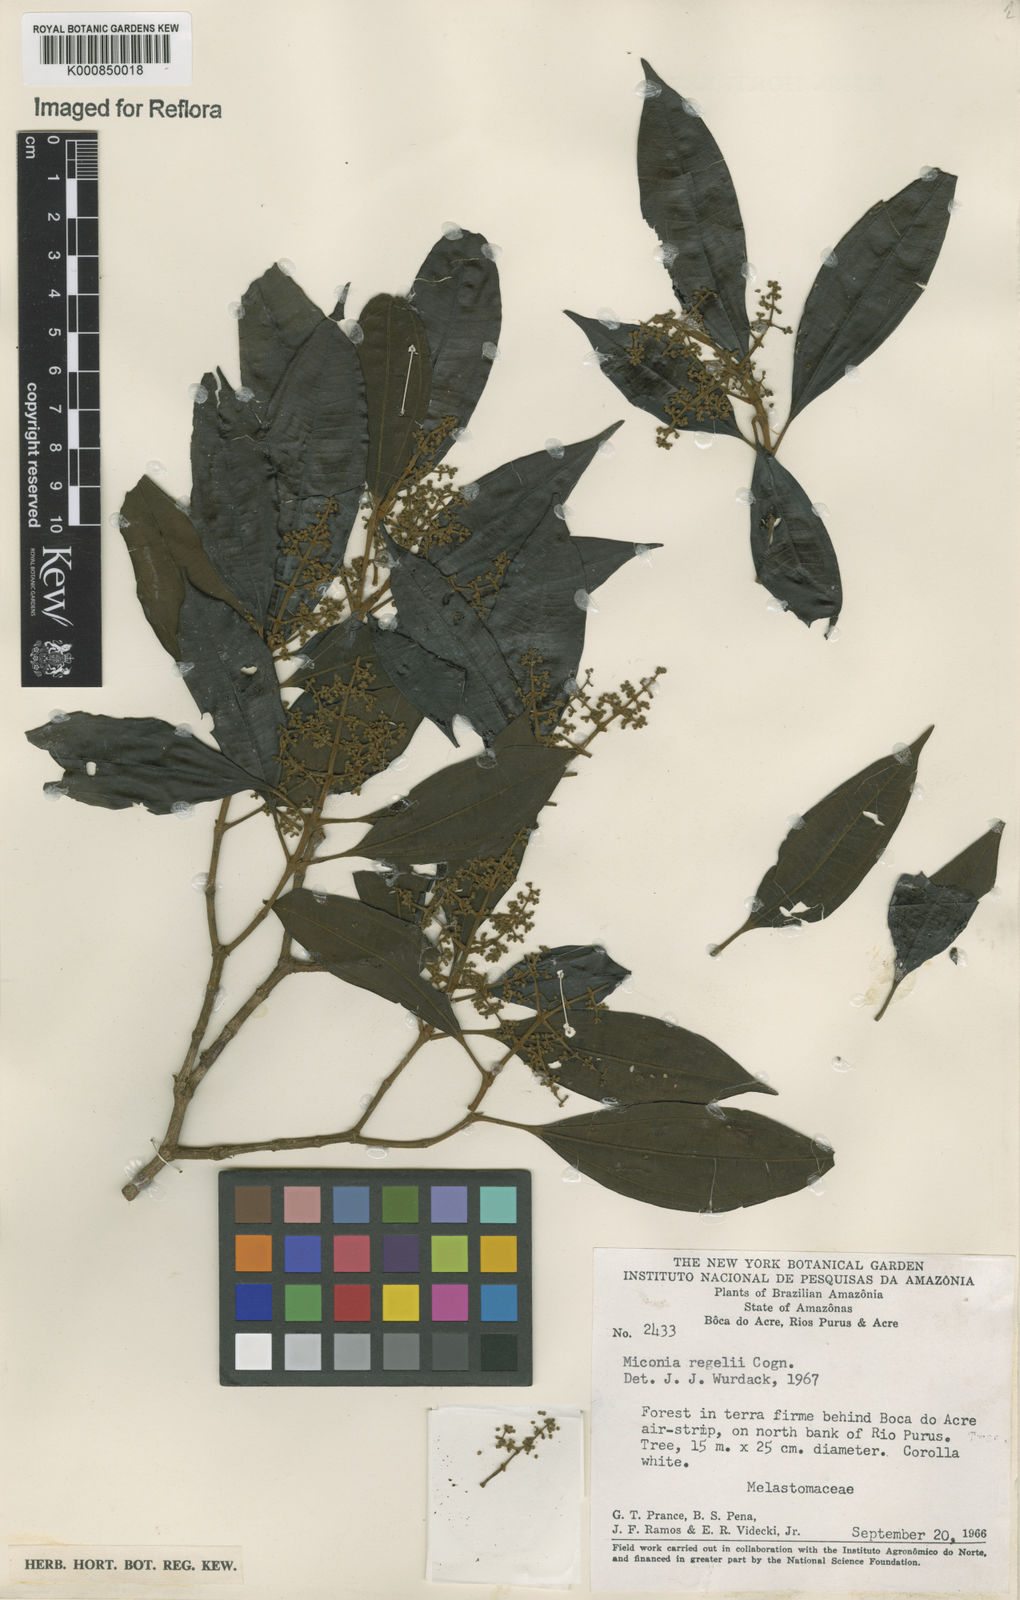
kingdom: Plantae
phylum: Tracheophyta
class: Magnoliopsida
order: Myrtales
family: Melastomataceae
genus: Miconia
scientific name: Miconia regelii
